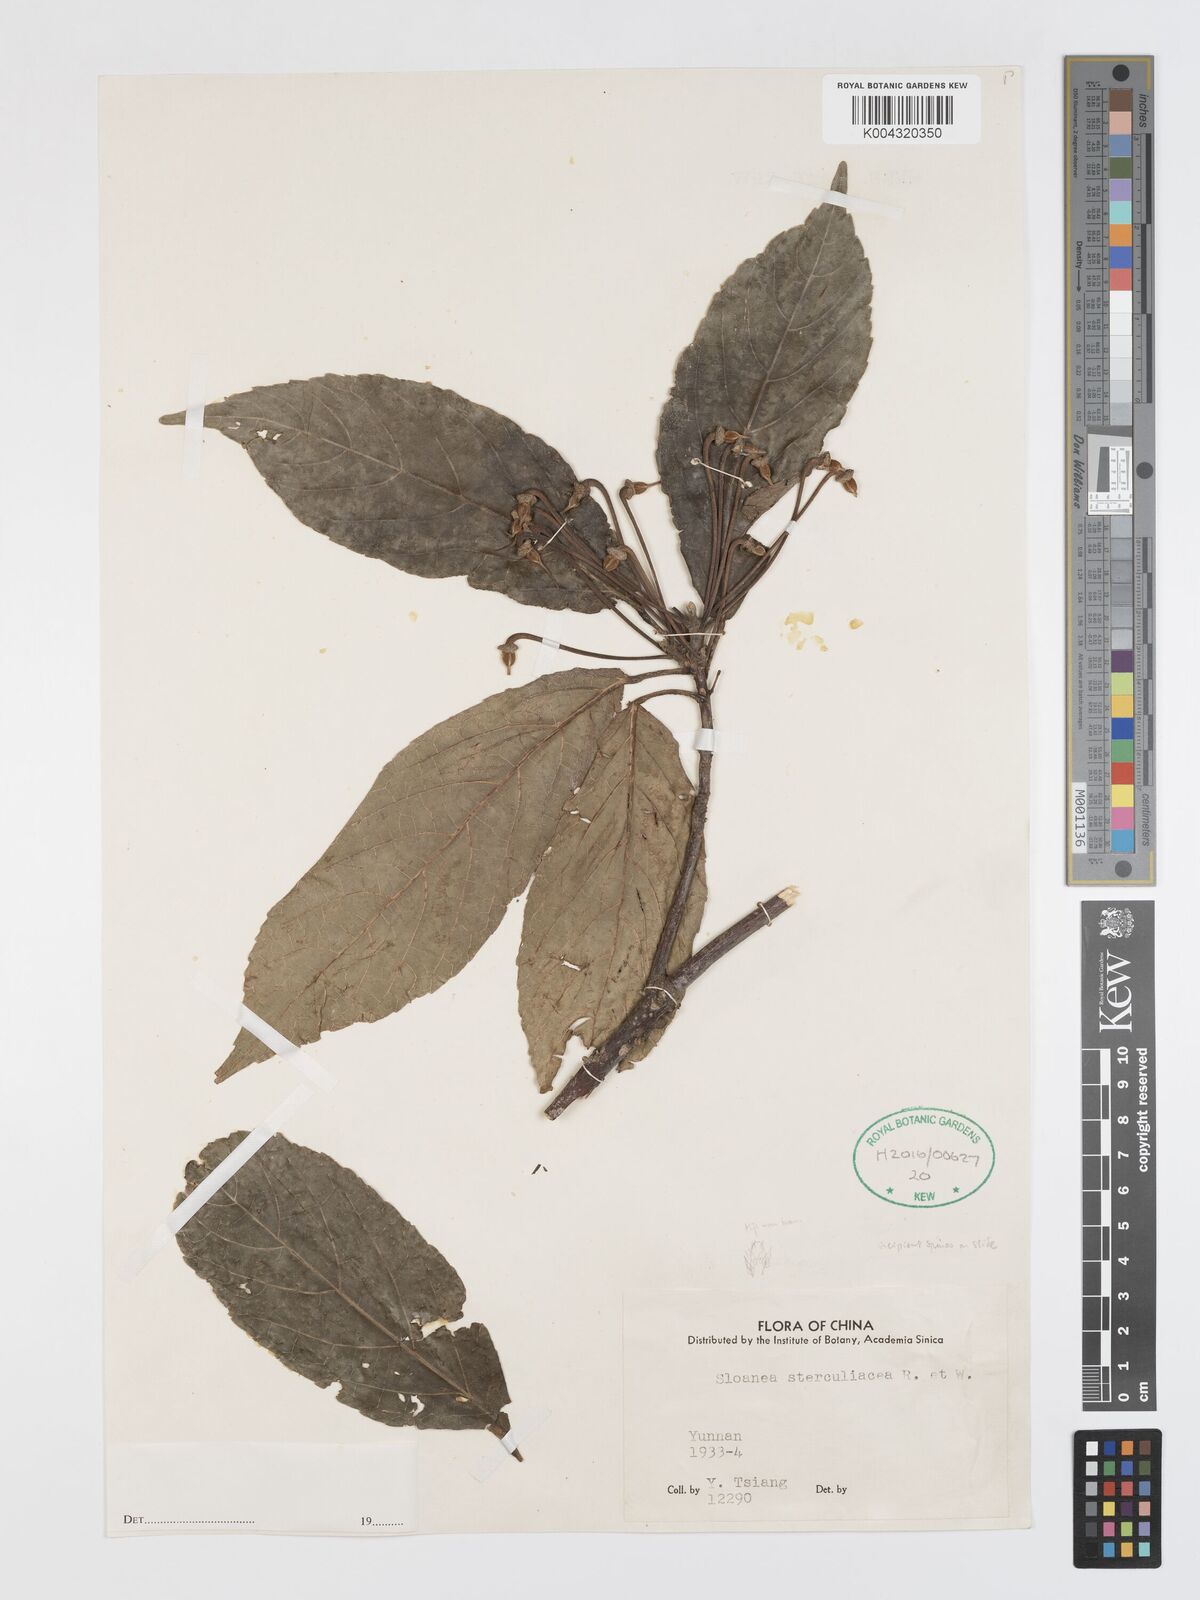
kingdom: Plantae
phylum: Tracheophyta
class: Magnoliopsida
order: Oxalidales
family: Elaeocarpaceae
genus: Sloanea
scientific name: Sloanea sterculiacea
